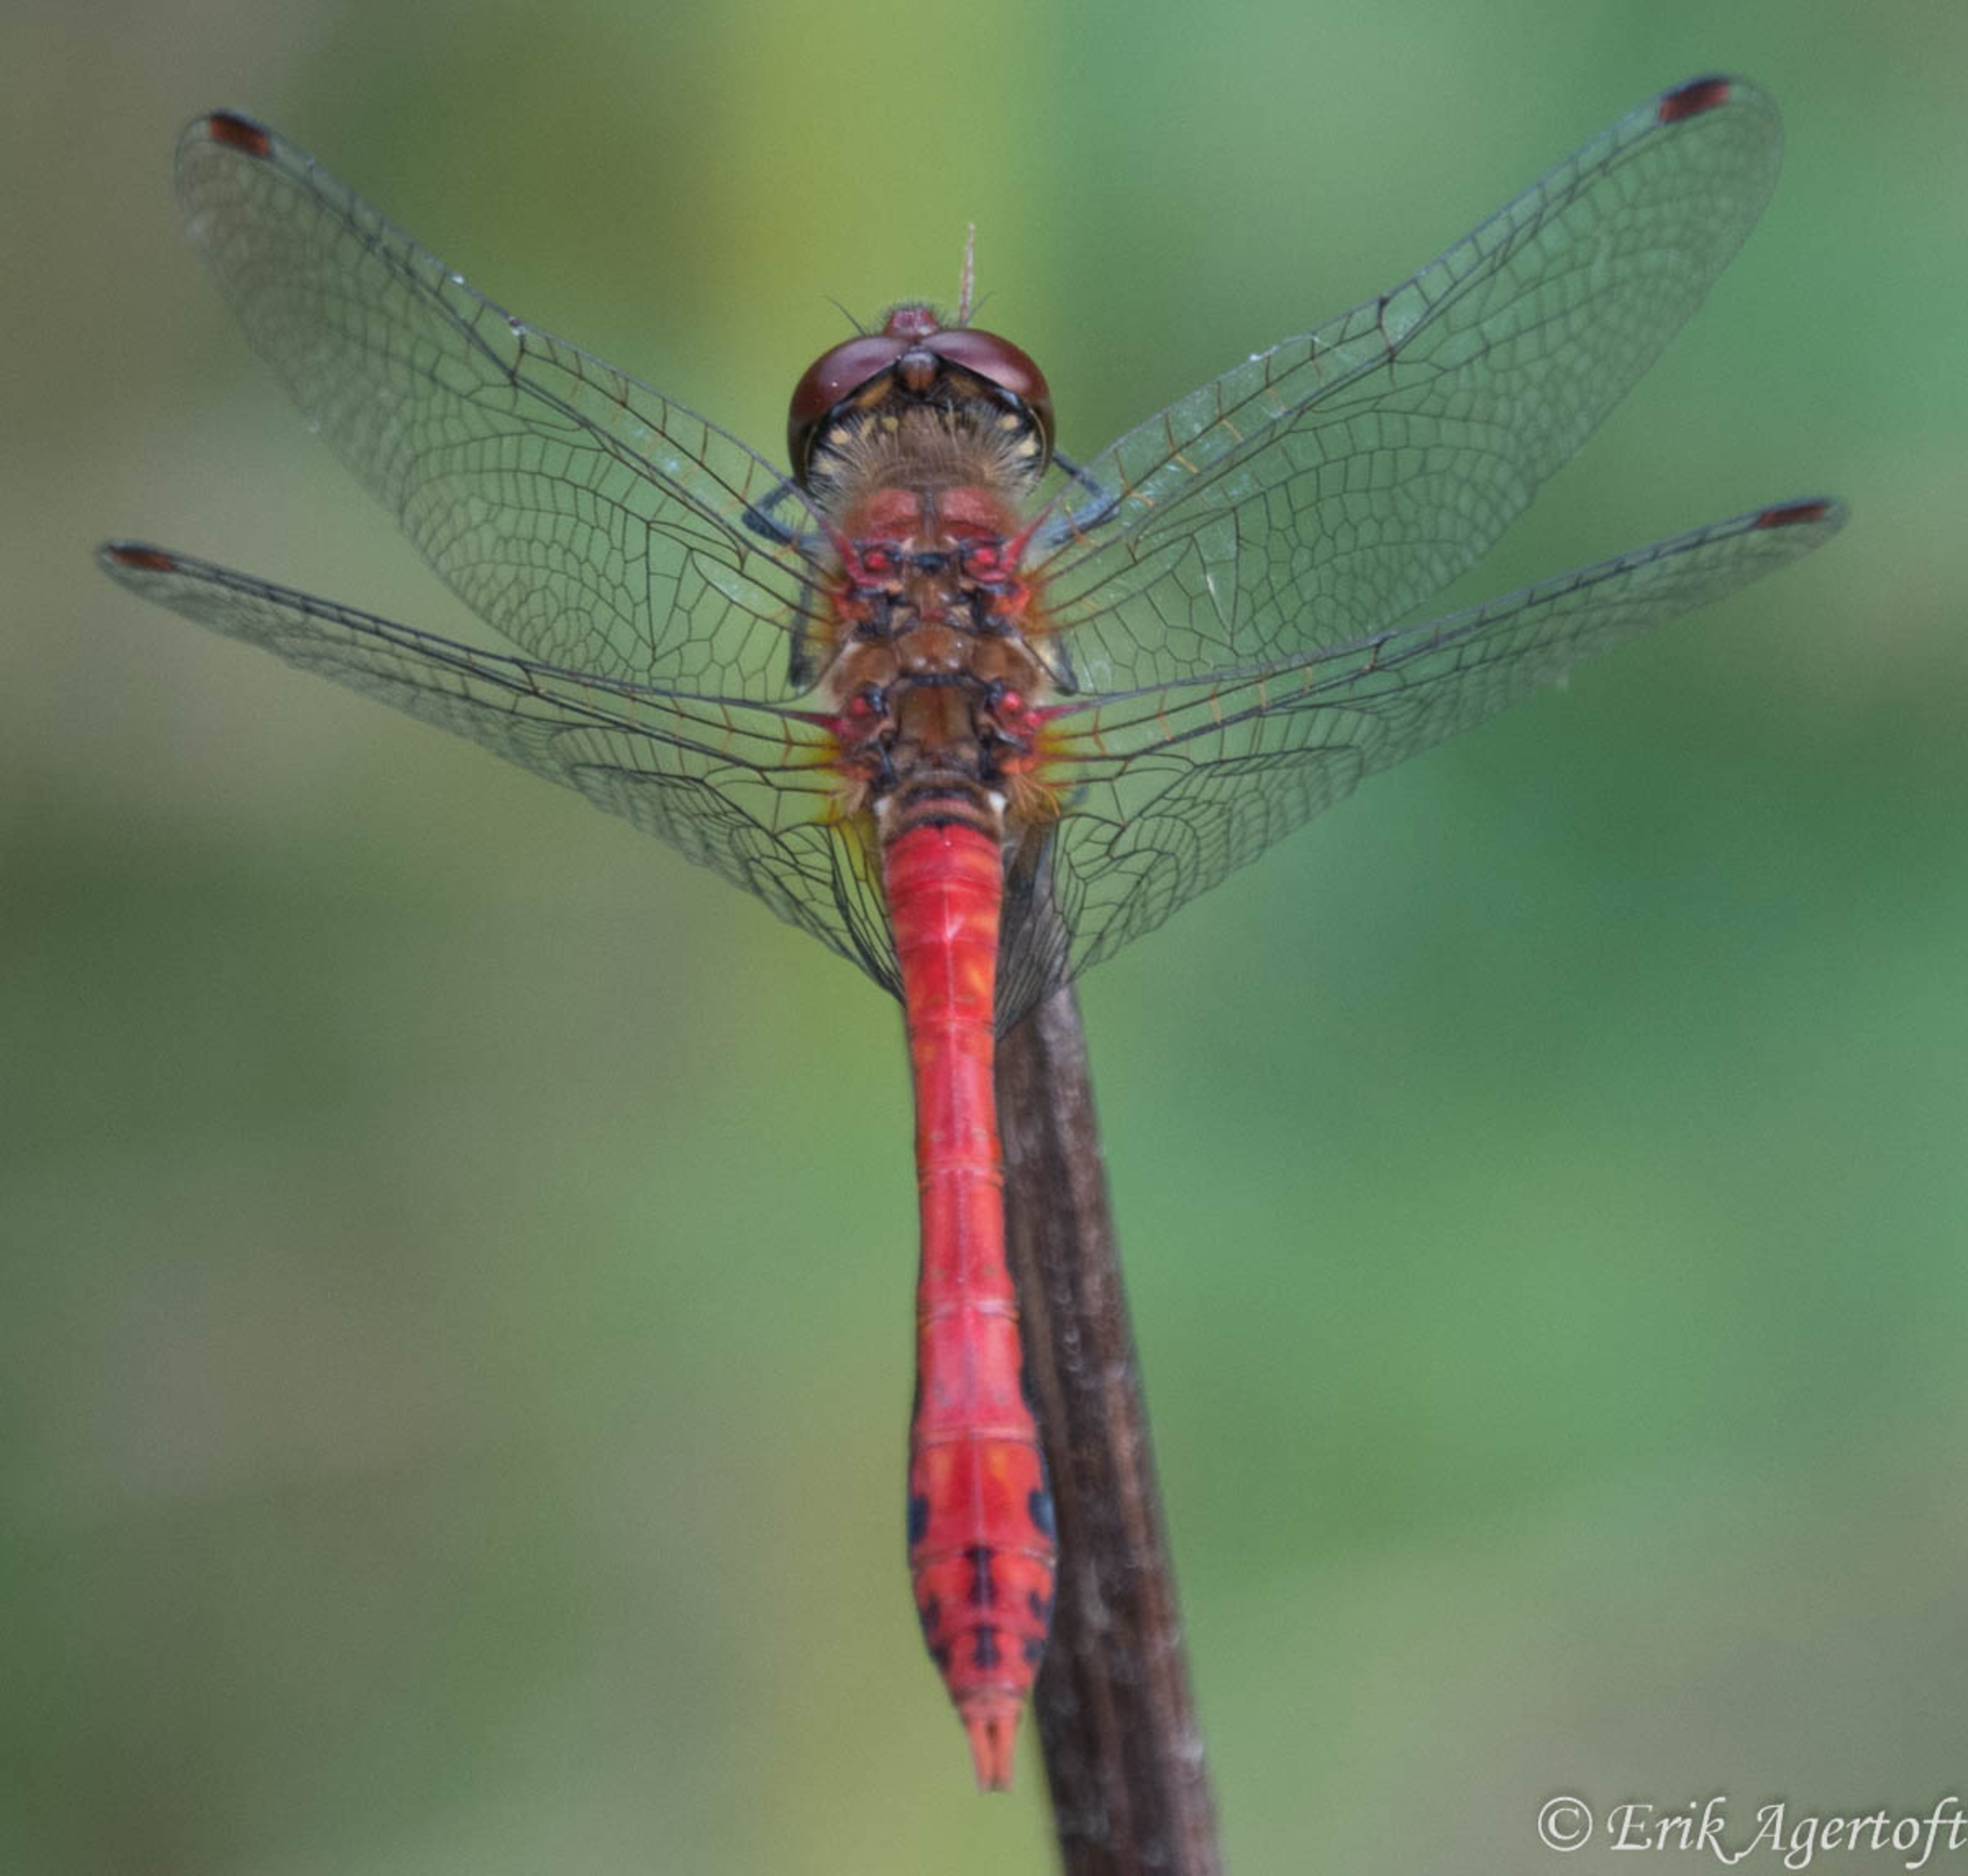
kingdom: Animalia
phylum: Arthropoda
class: Insecta
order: Odonata
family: Libellulidae
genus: Sympetrum
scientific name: Sympetrum sanguineum
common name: Blodrød hedelibel
